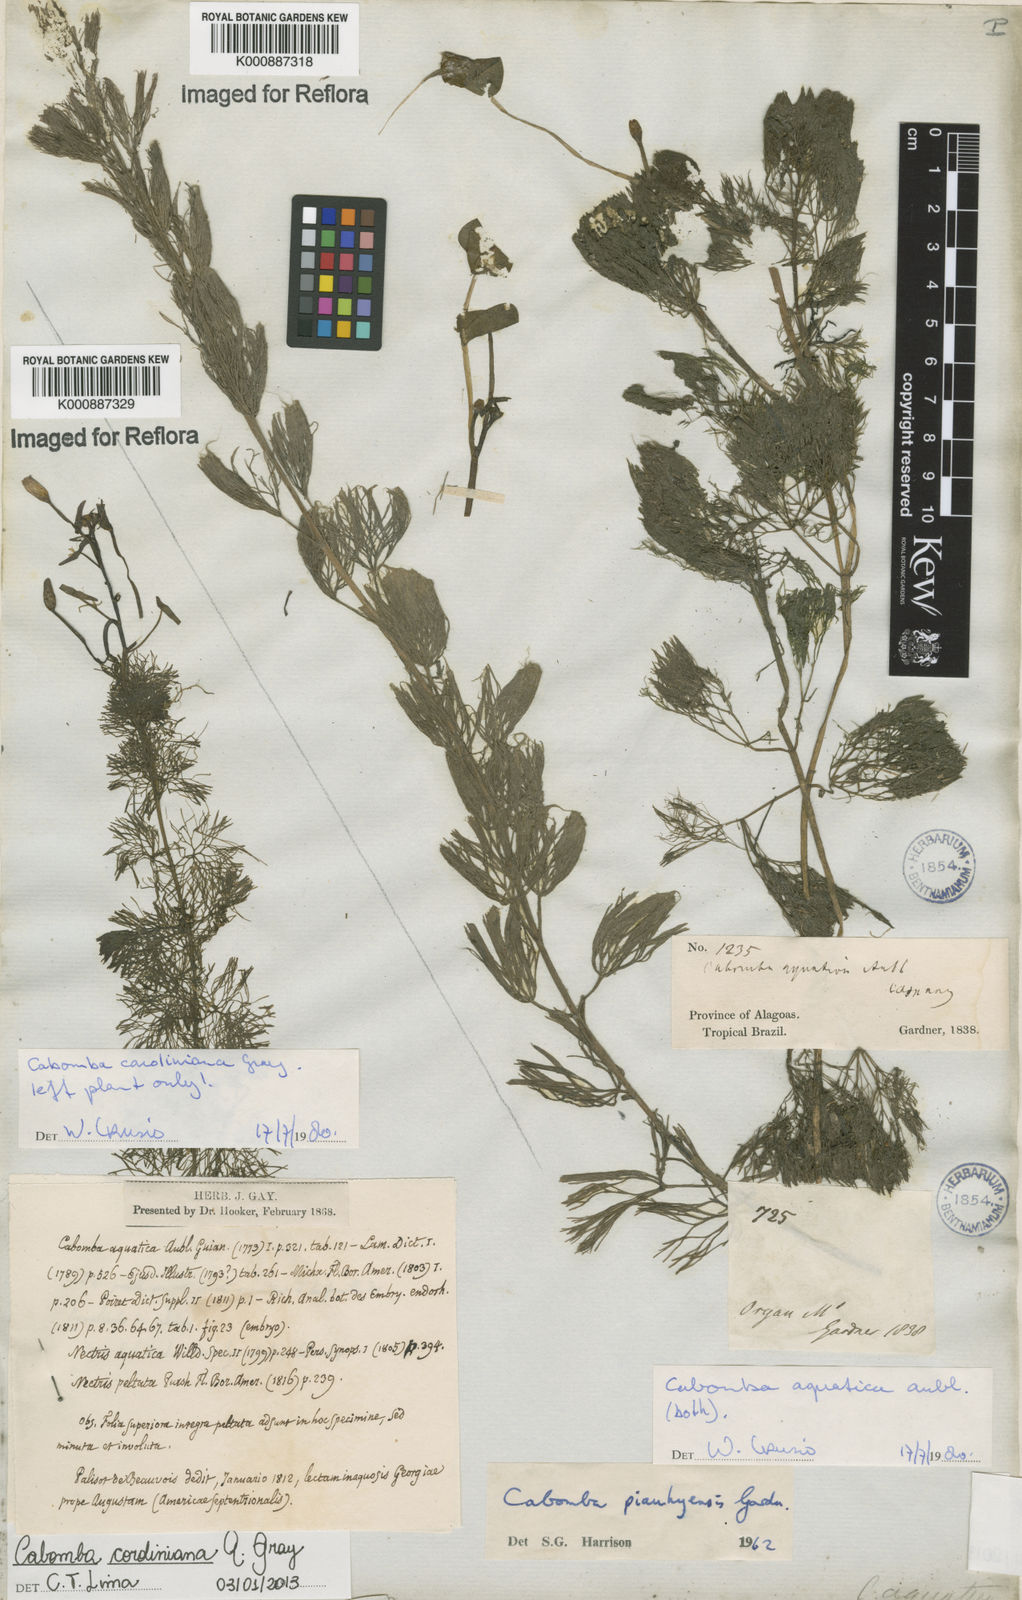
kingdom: Plantae
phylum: Tracheophyta
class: Magnoliopsida
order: Nymphaeales
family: Cabombaceae
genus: Cabomba
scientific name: Cabomba aquatica
